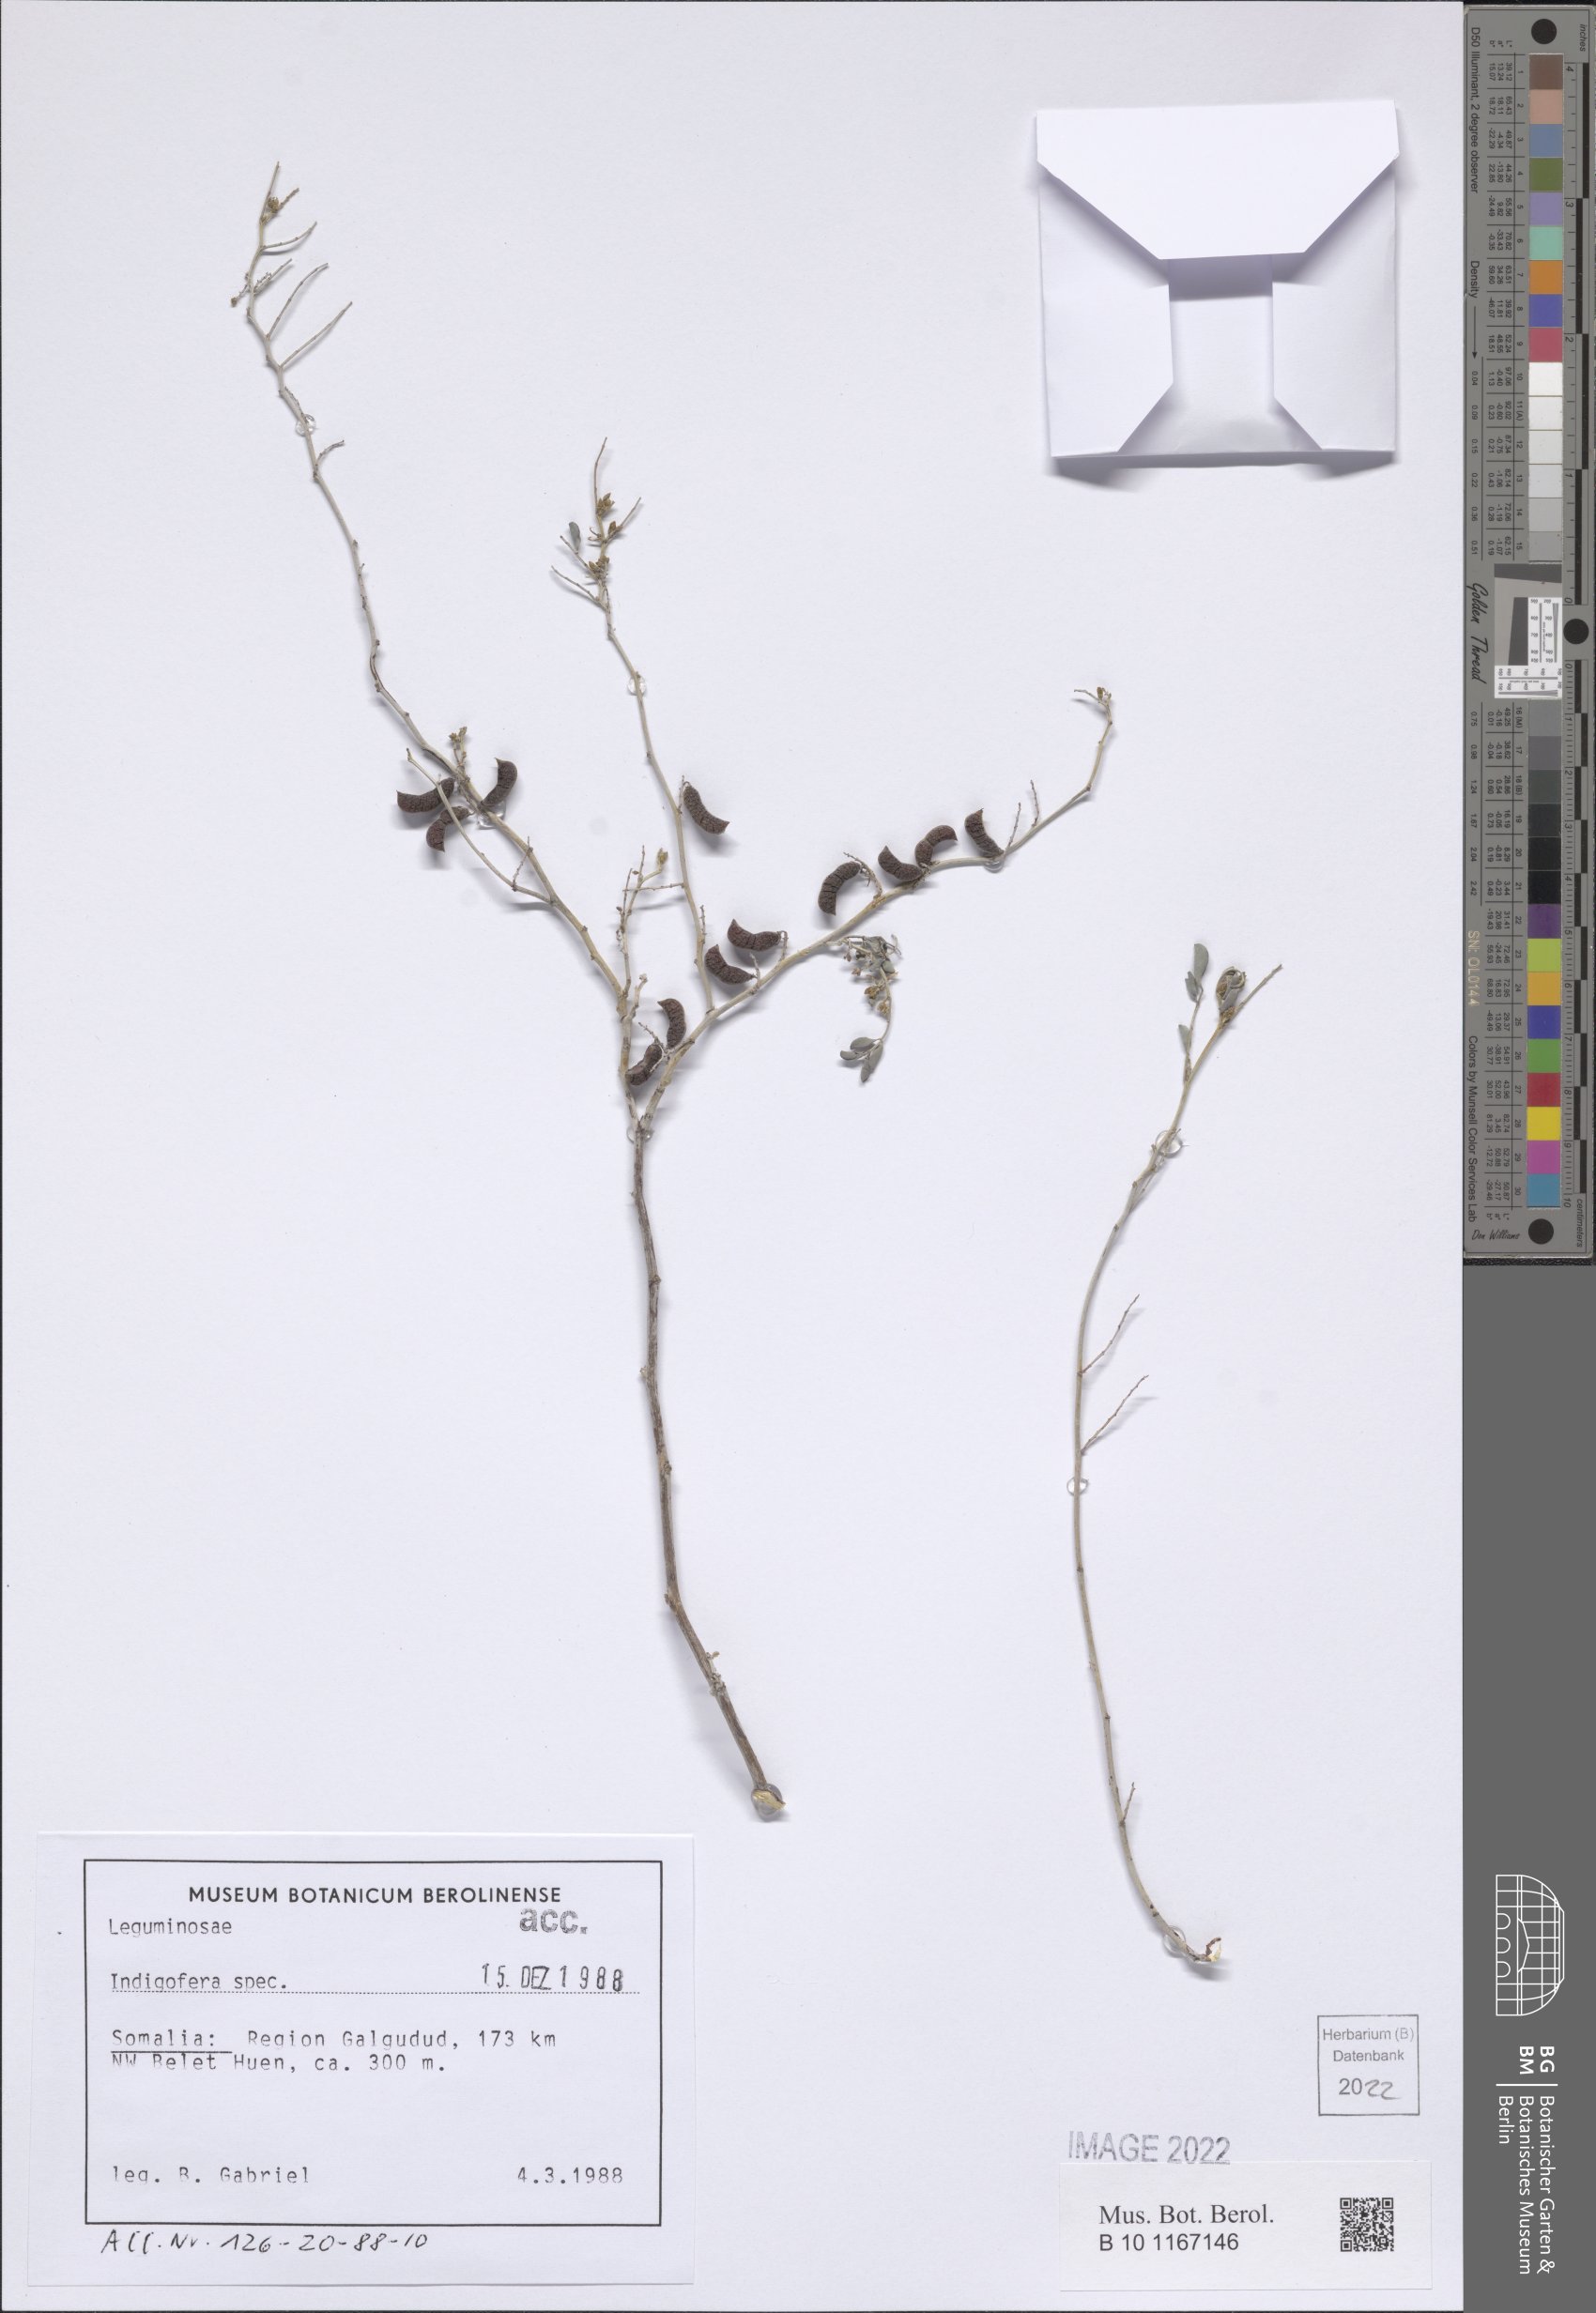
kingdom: Plantae
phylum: Tracheophyta
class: Magnoliopsida
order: Fabales
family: Fabaceae
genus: Indigofera
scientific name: Indigofera
